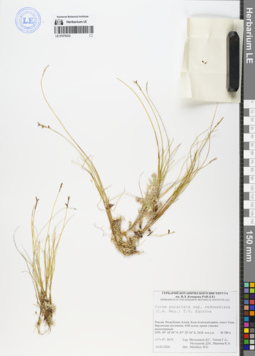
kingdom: Plantae
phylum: Tracheophyta
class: Liliopsida
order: Poales
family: Cyperaceae
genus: Carex
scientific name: Carex parallela
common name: Parallel sedge
